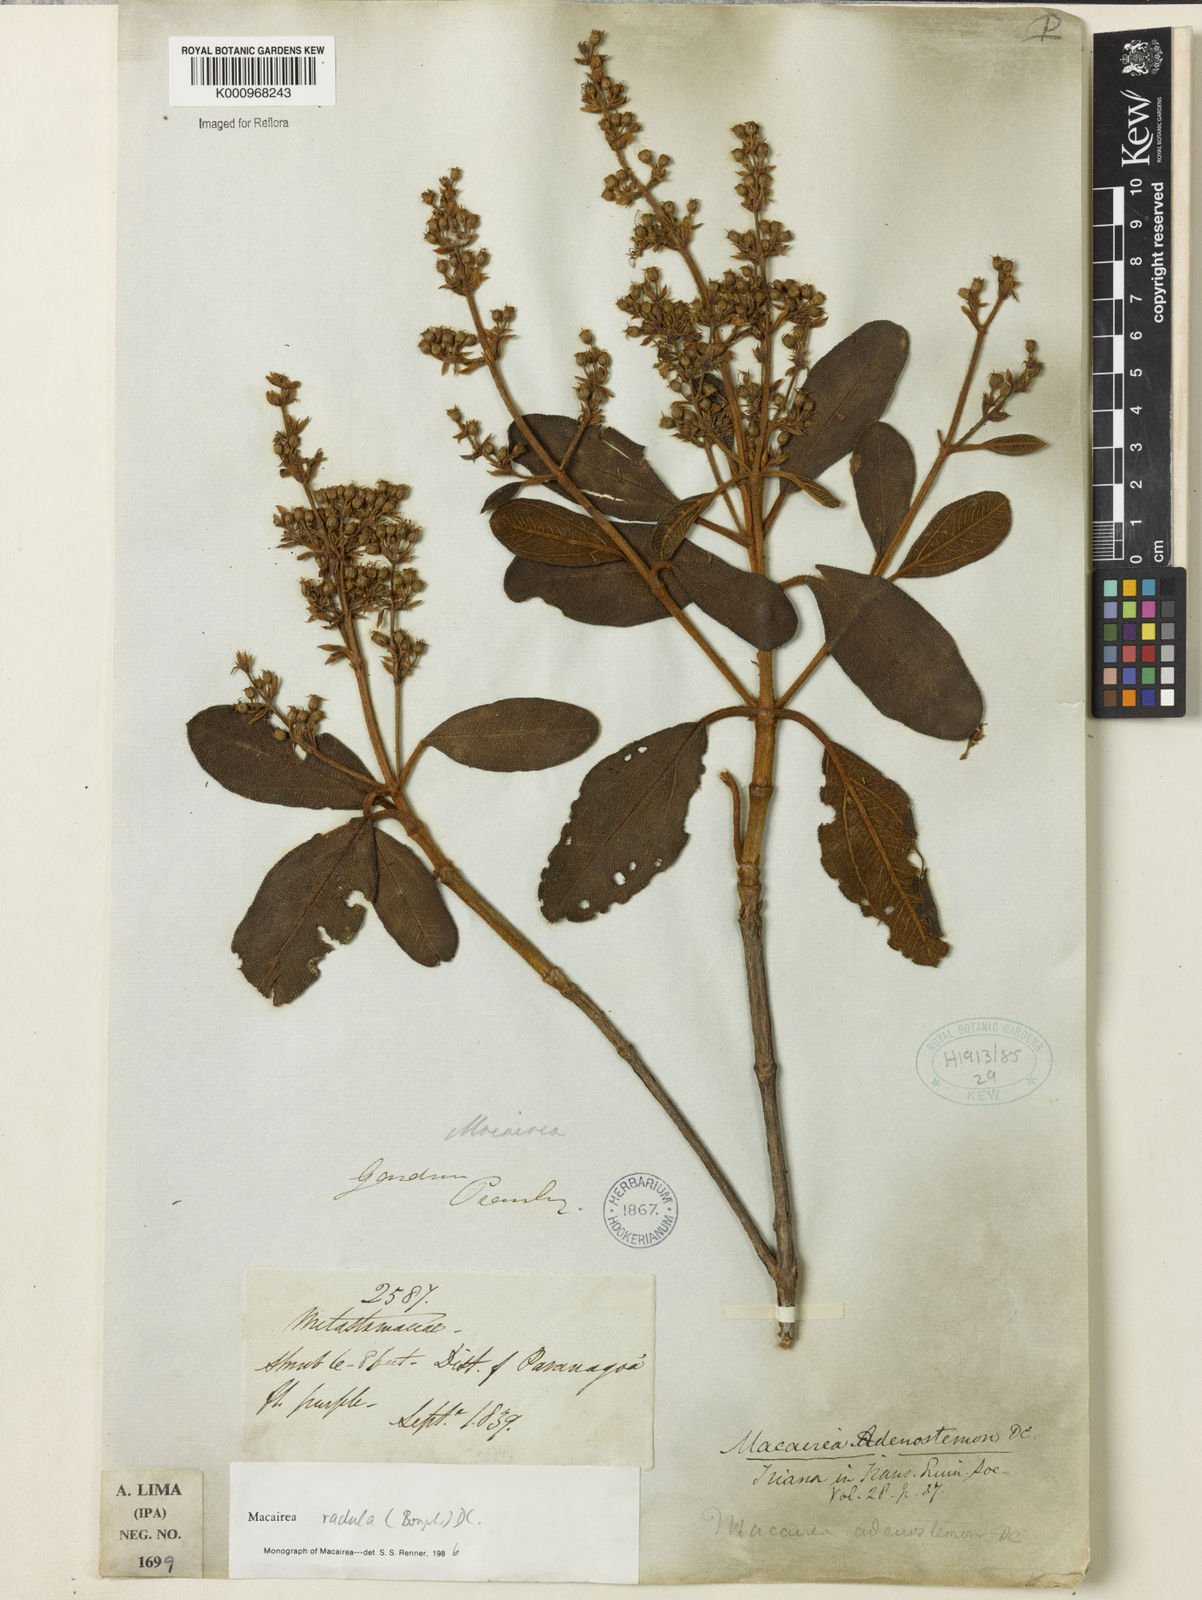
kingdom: Plantae
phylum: Tracheophyta
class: Magnoliopsida
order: Myrtales
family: Melastomataceae
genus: Macairea
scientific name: Macairea radula
